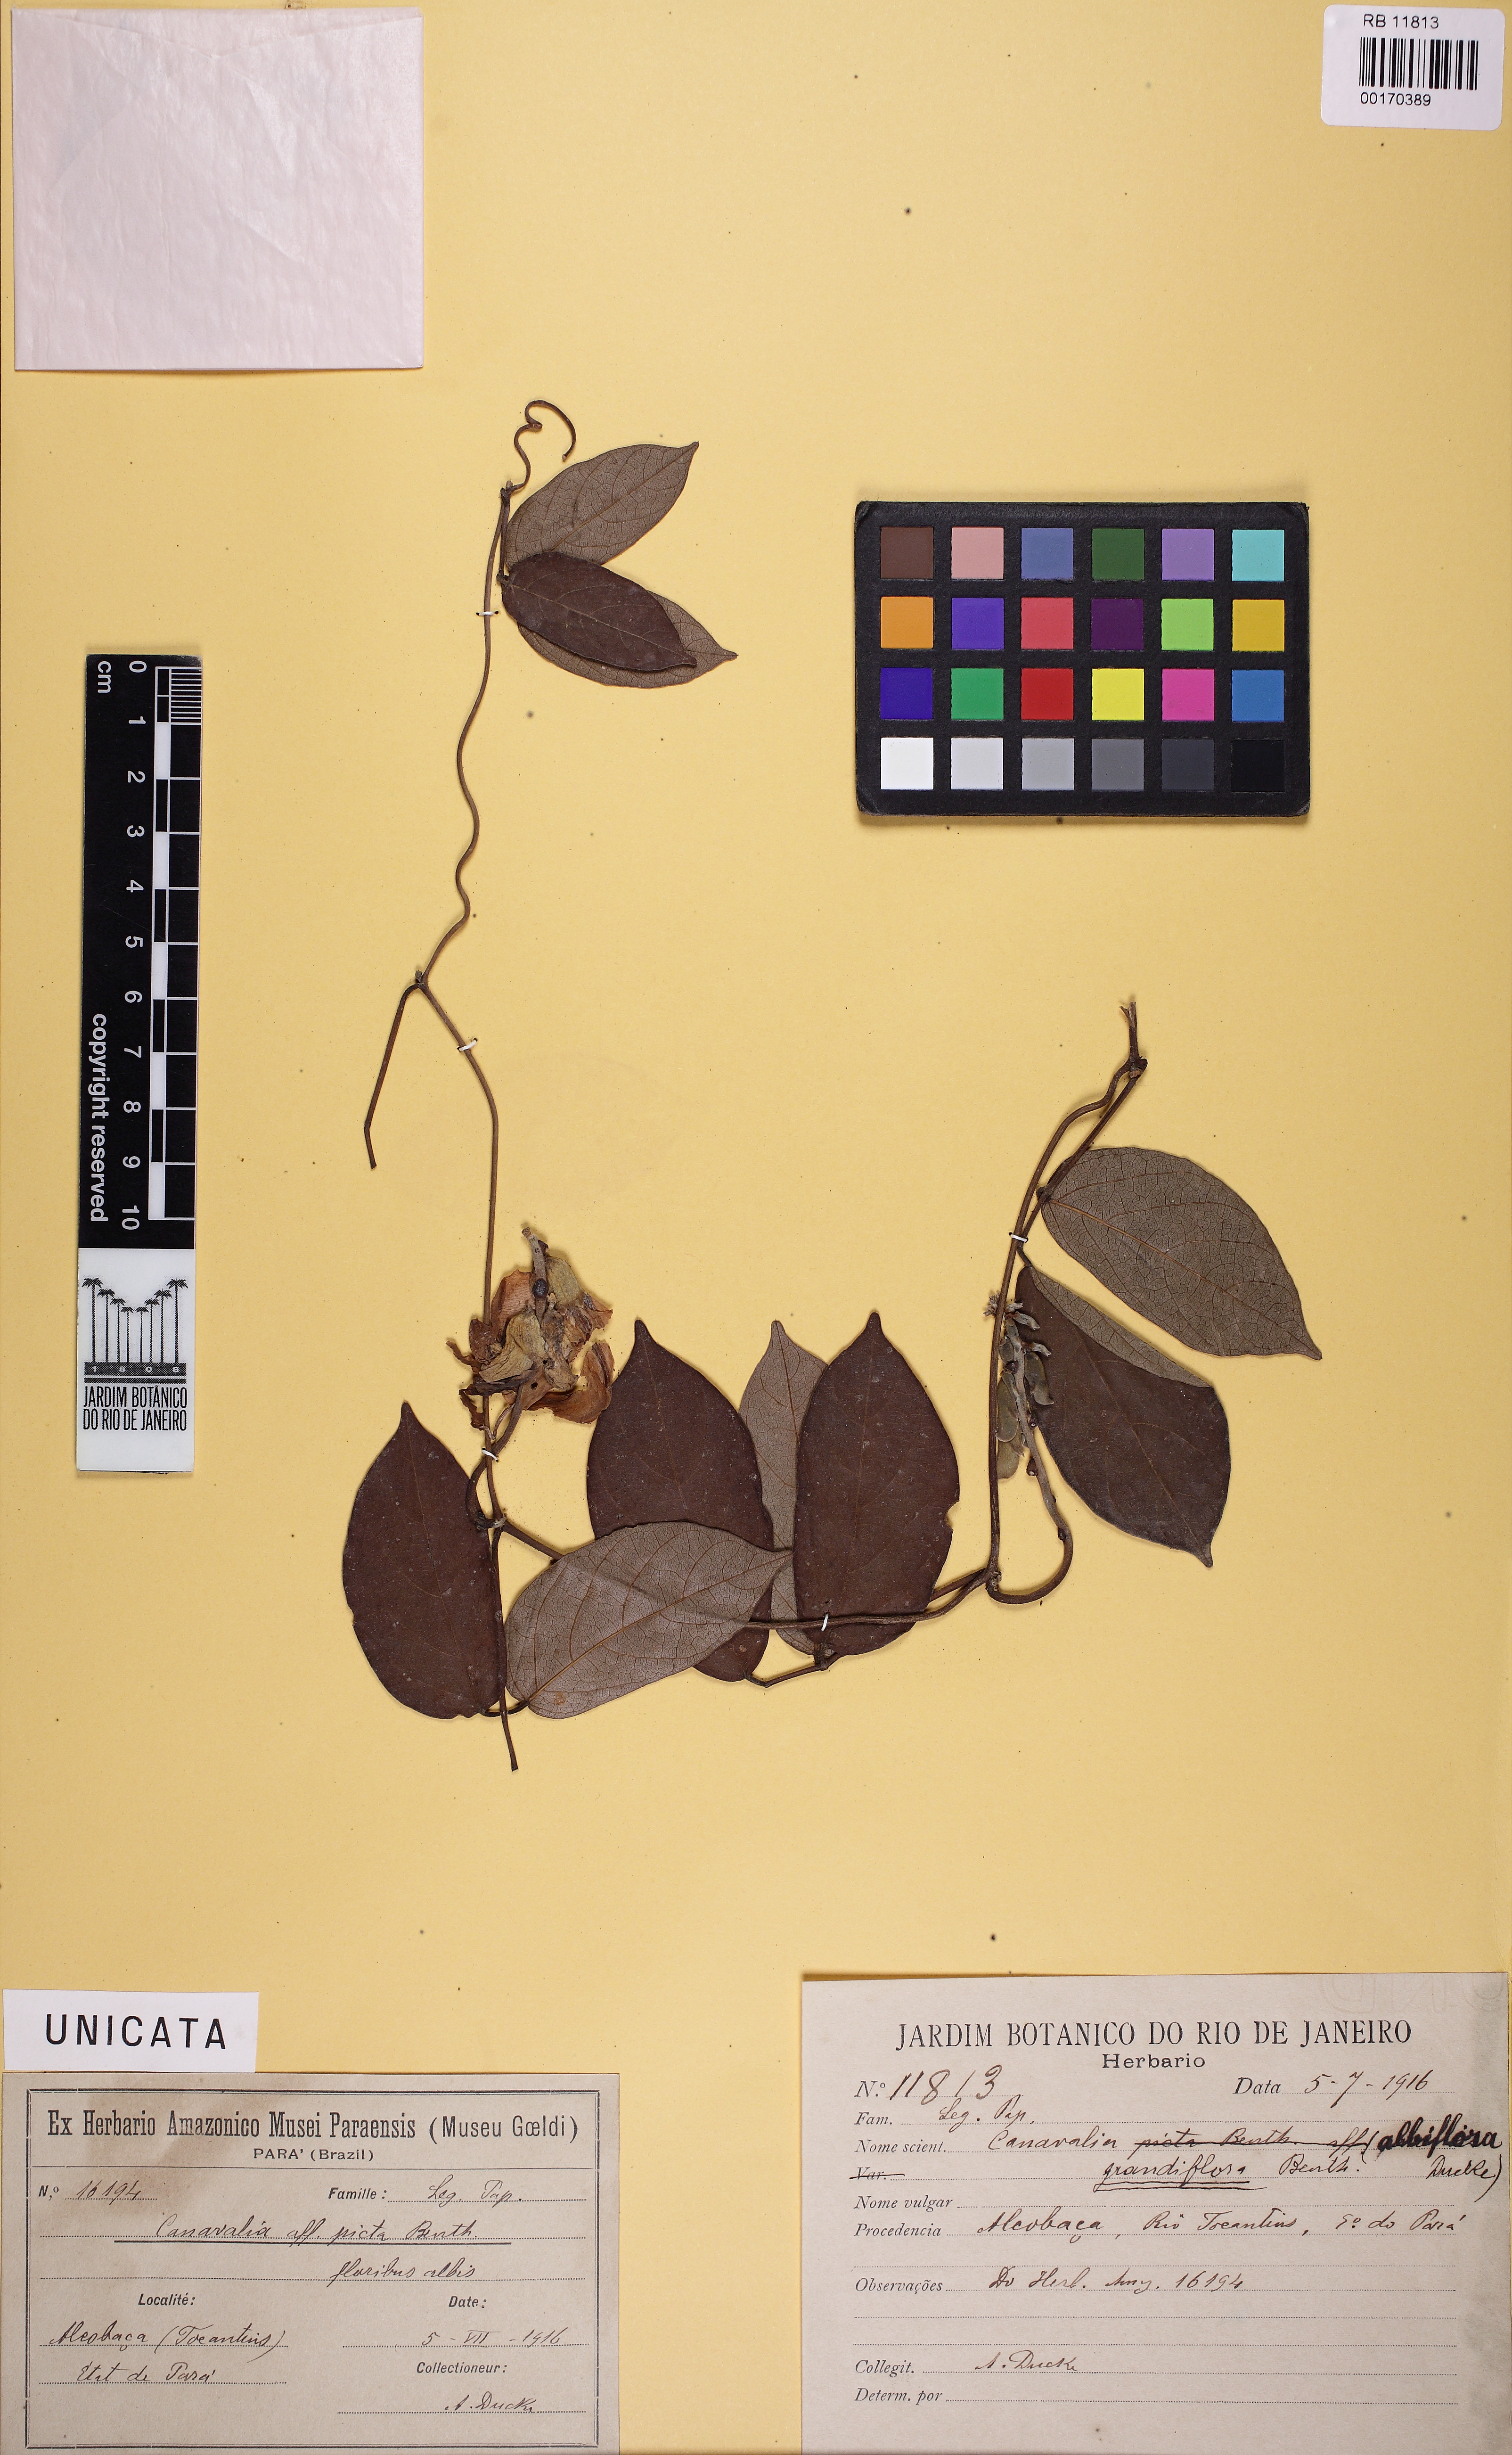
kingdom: Plantae
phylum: Tracheophyta
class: Magnoliopsida
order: Fabales
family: Fabaceae
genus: Canavalia
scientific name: Canavalia grandiflora
